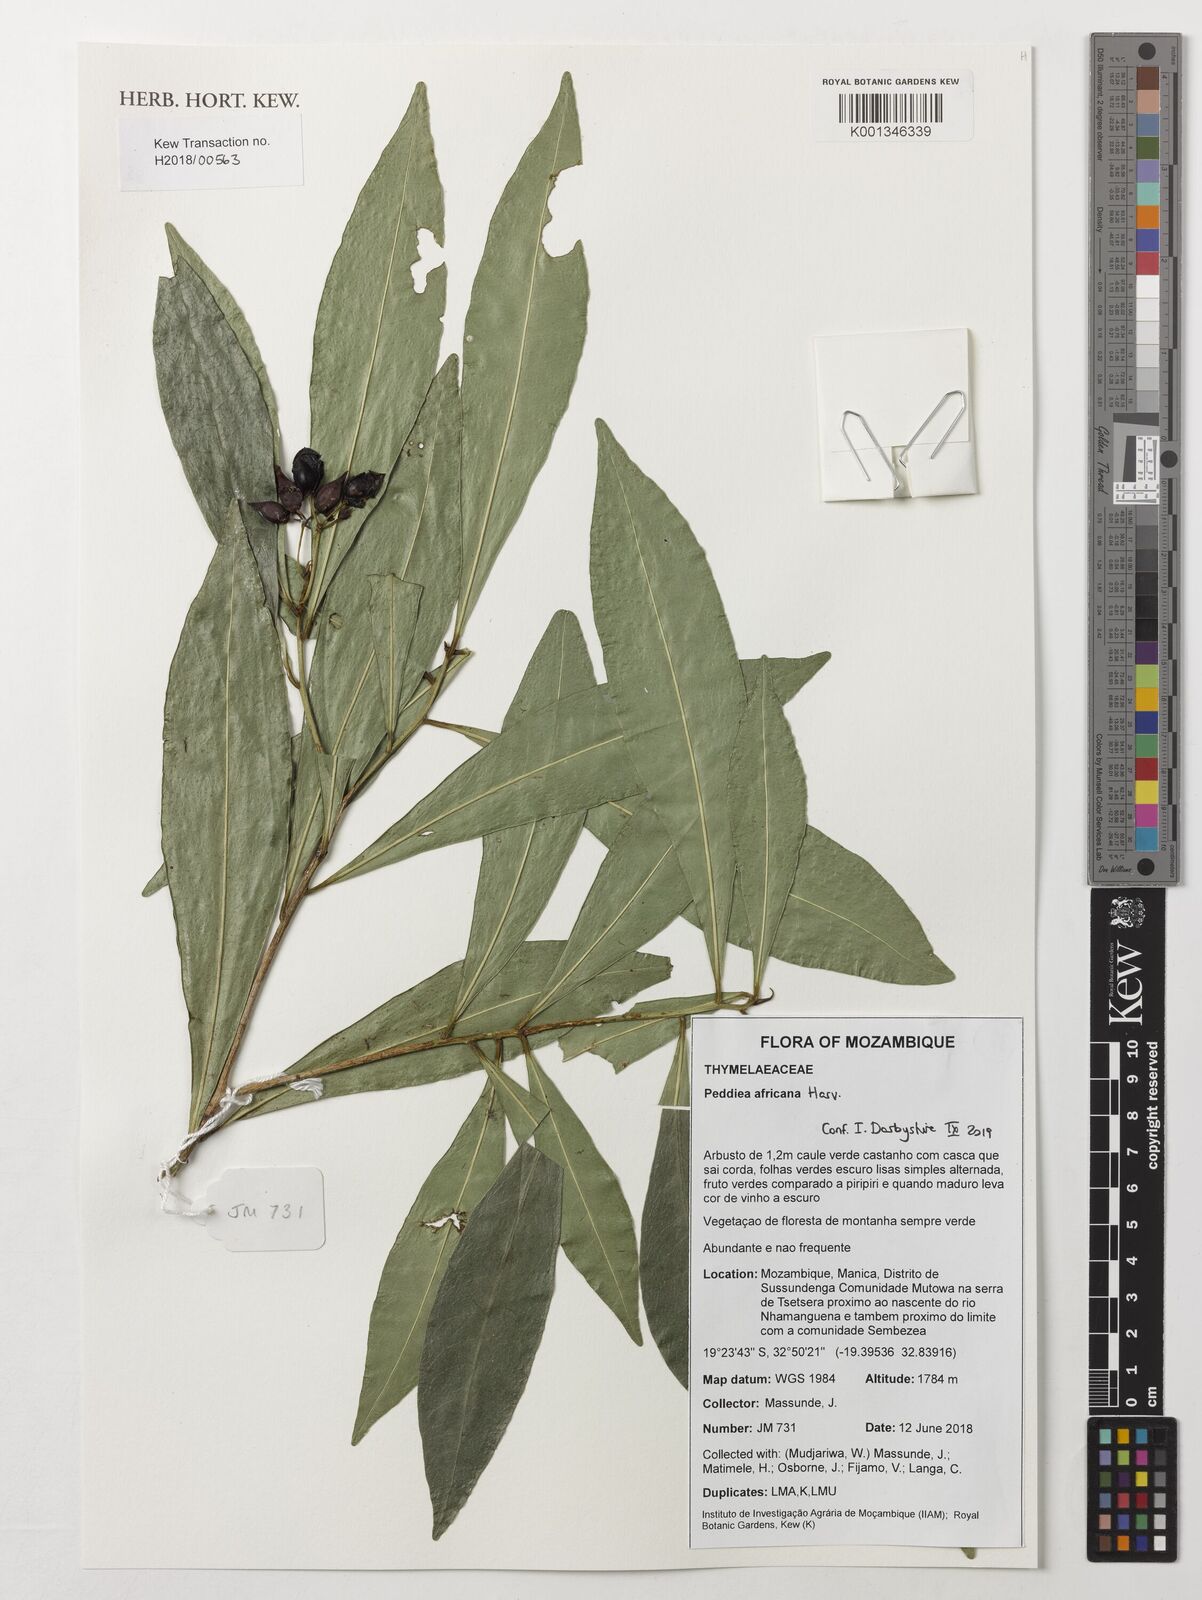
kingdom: Plantae
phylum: Tracheophyta
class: Magnoliopsida
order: Malvales
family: Thymelaeaceae
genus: Peddiea
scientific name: Peddiea africana
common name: Poison olive
